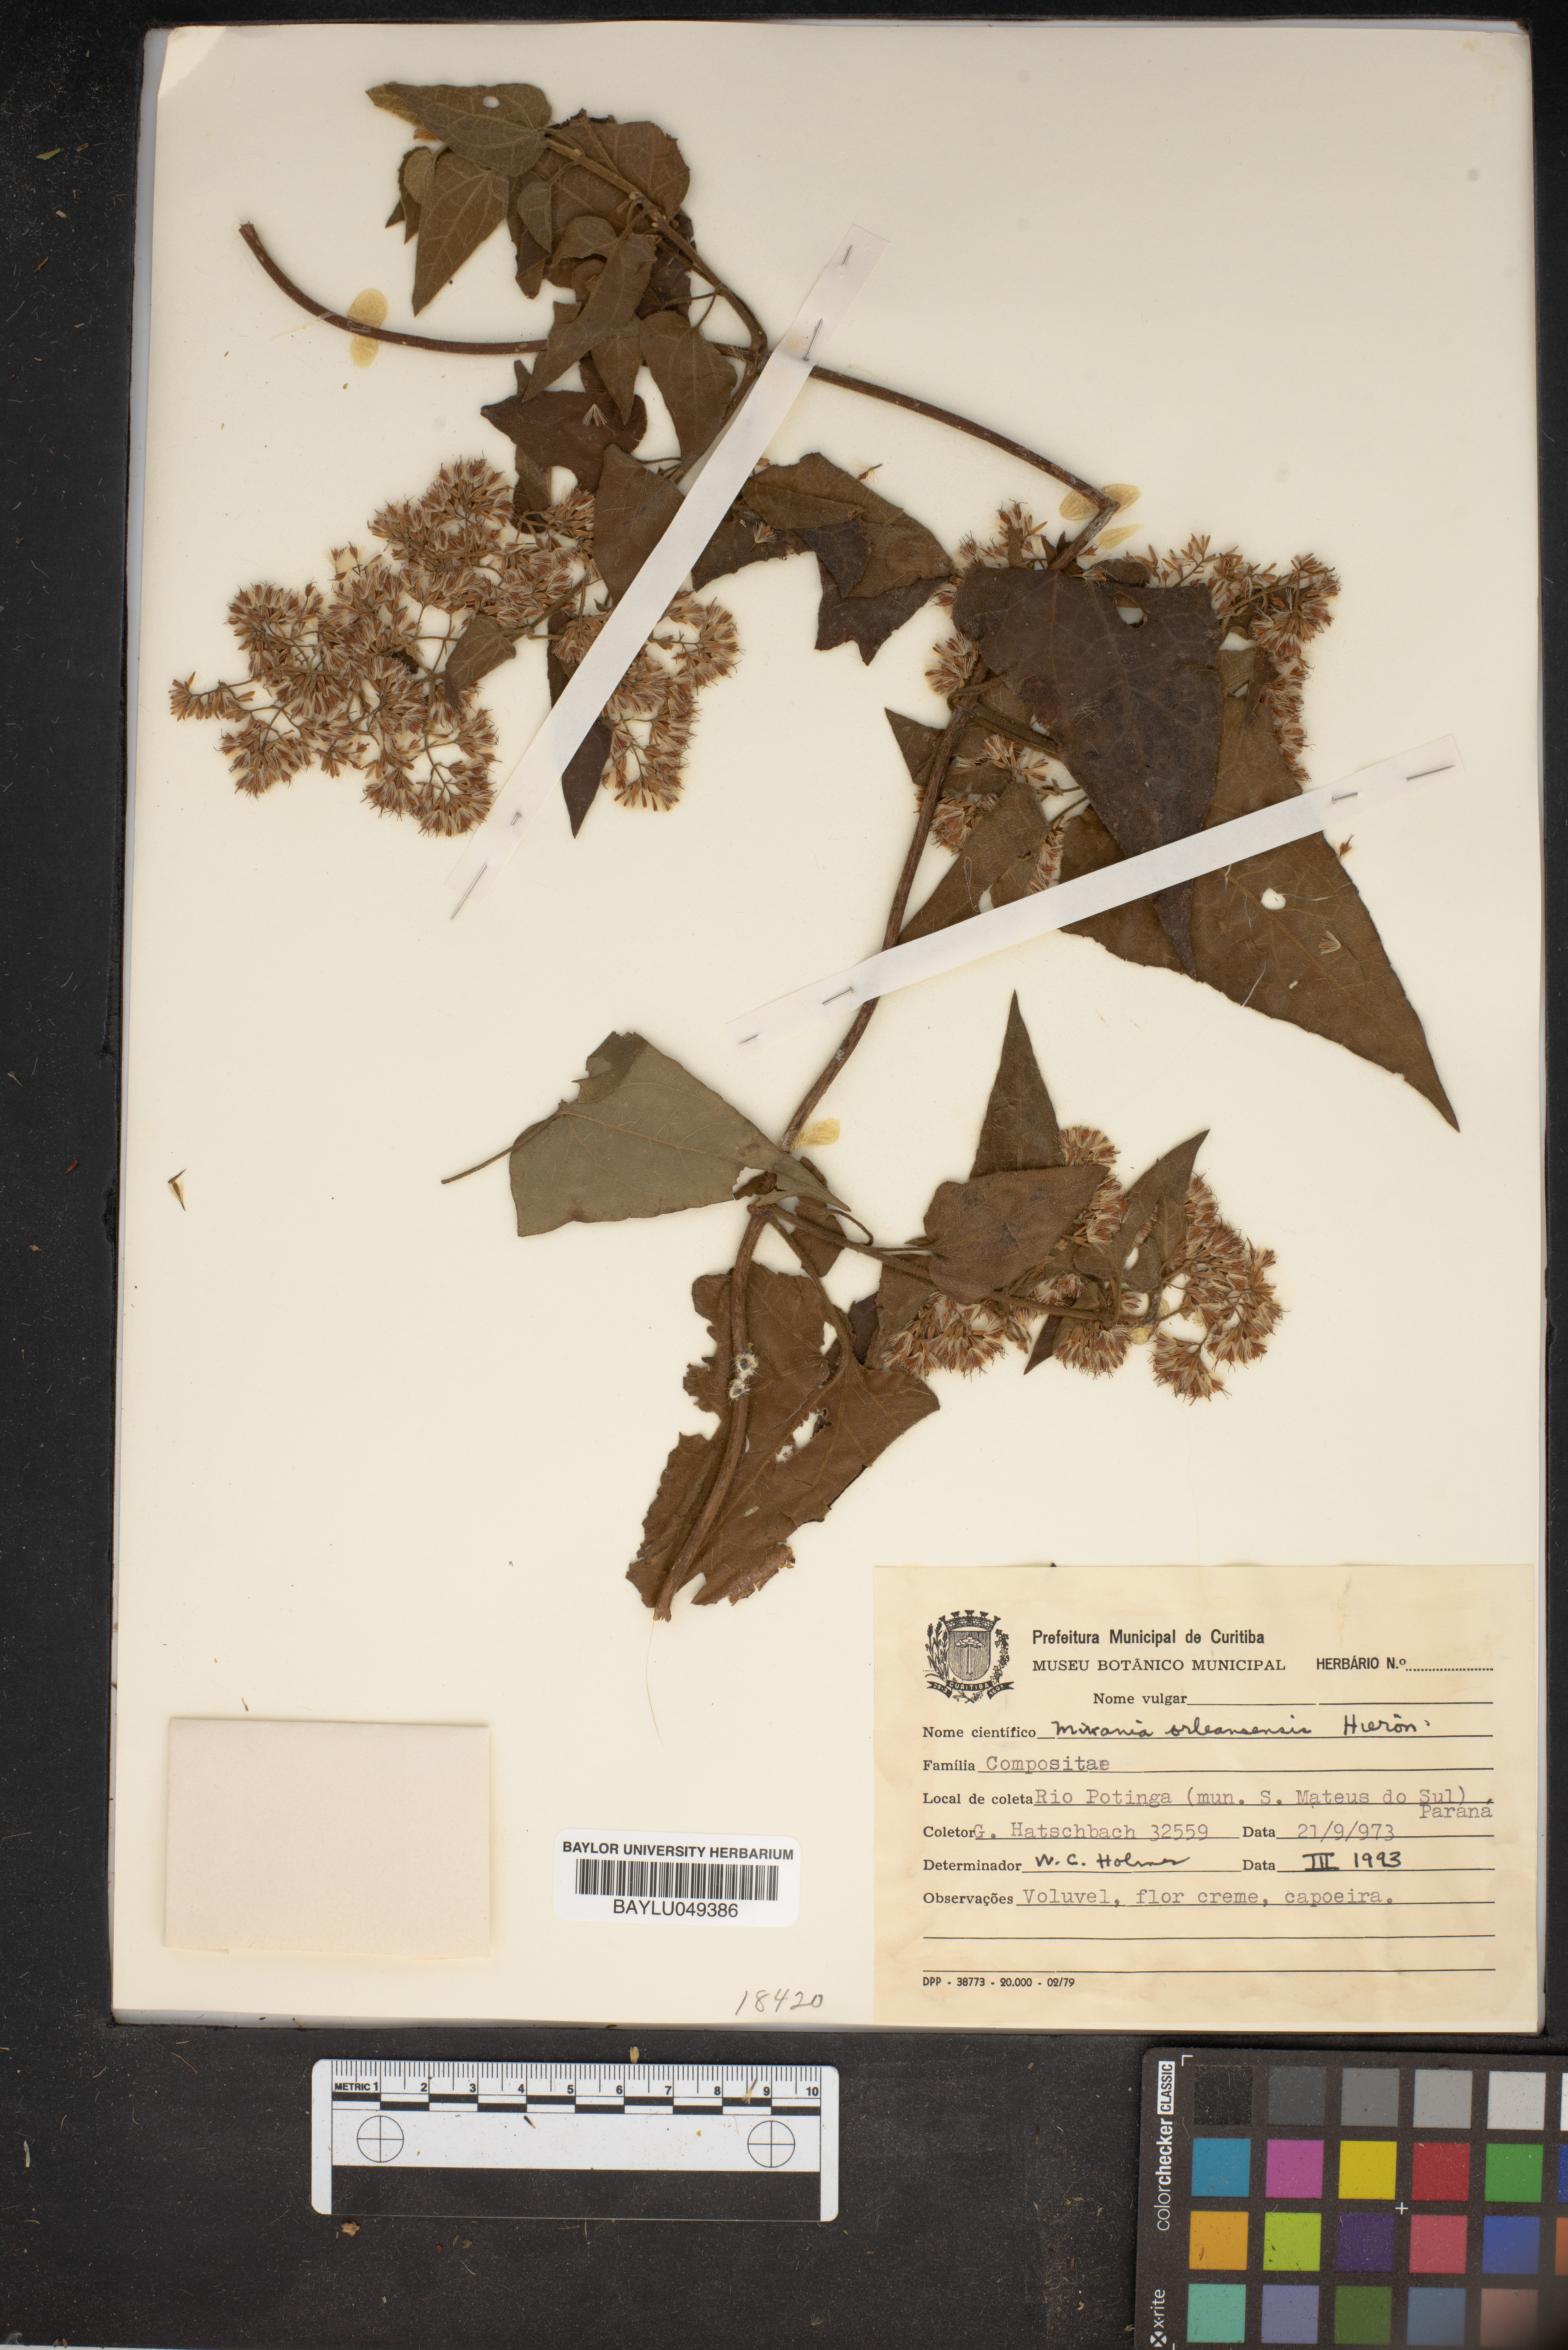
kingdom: Plantae
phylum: Tracheophyta
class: Magnoliopsida
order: Asterales
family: Asteraceae
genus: Mikania
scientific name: Mikania orleansensis
